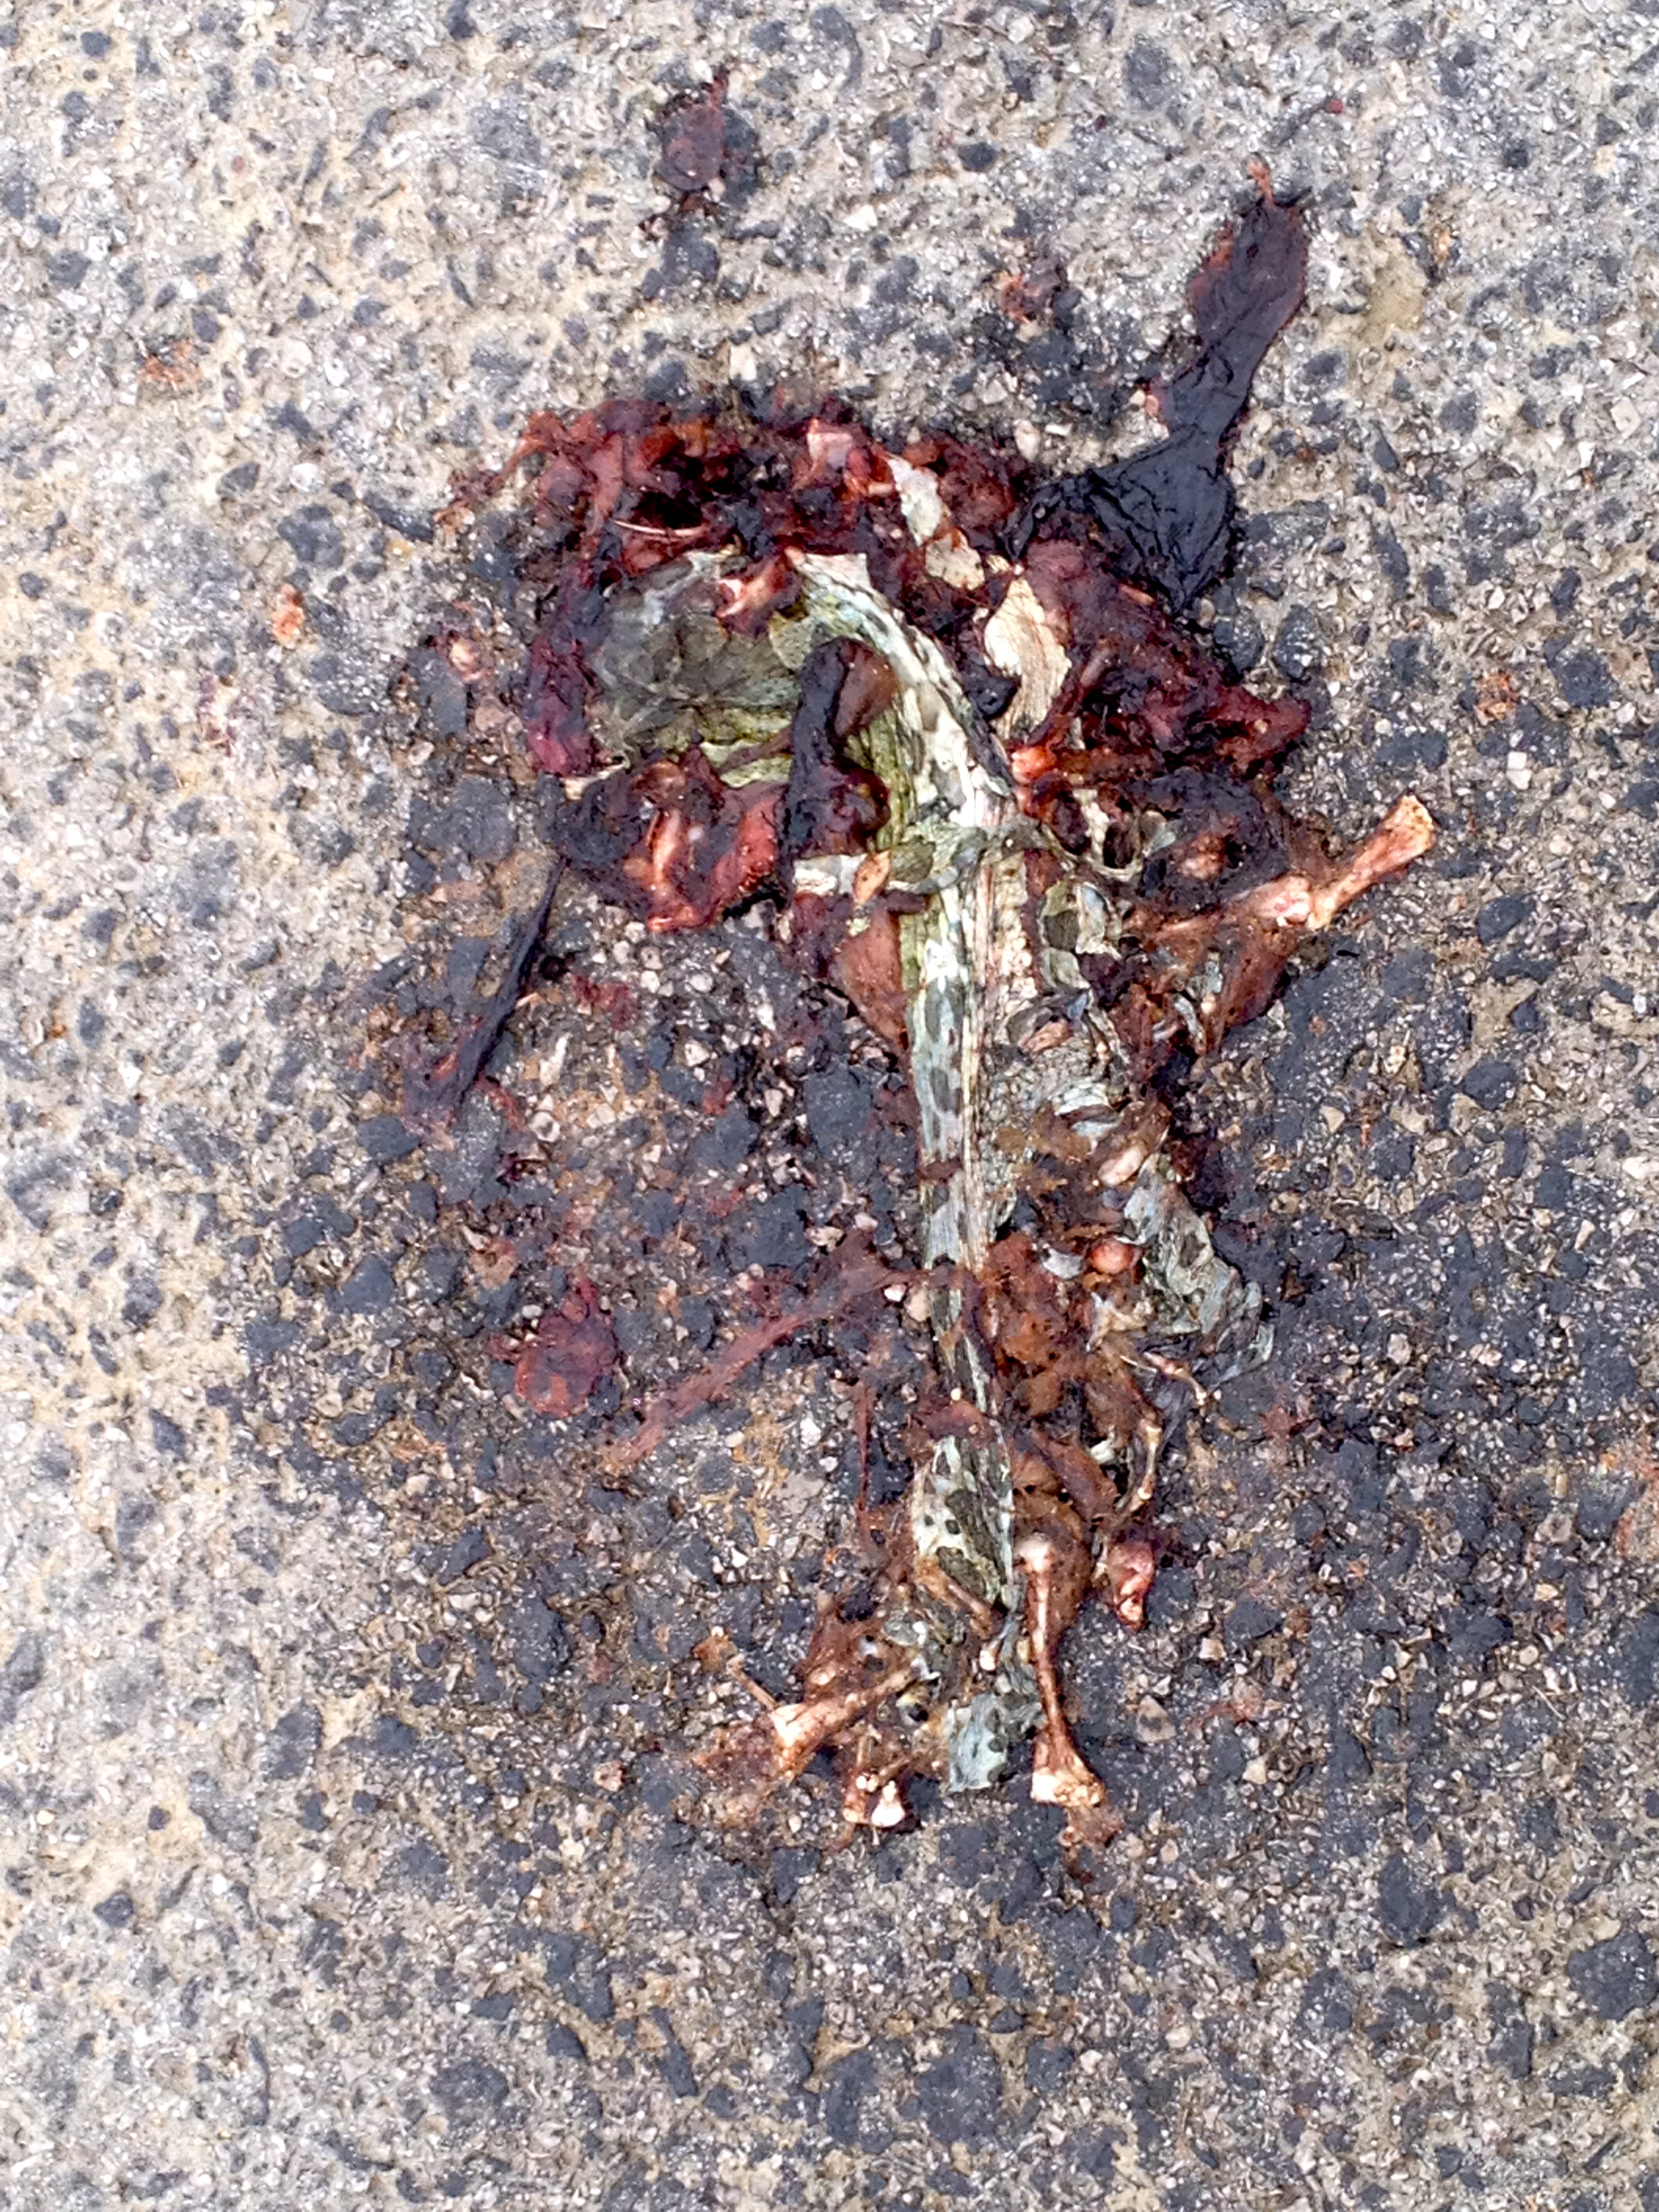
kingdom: Animalia
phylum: Chordata
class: Amphibia
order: Anura
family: Bufonidae
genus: Bufotes
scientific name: Bufotes viridis
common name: European green toad
